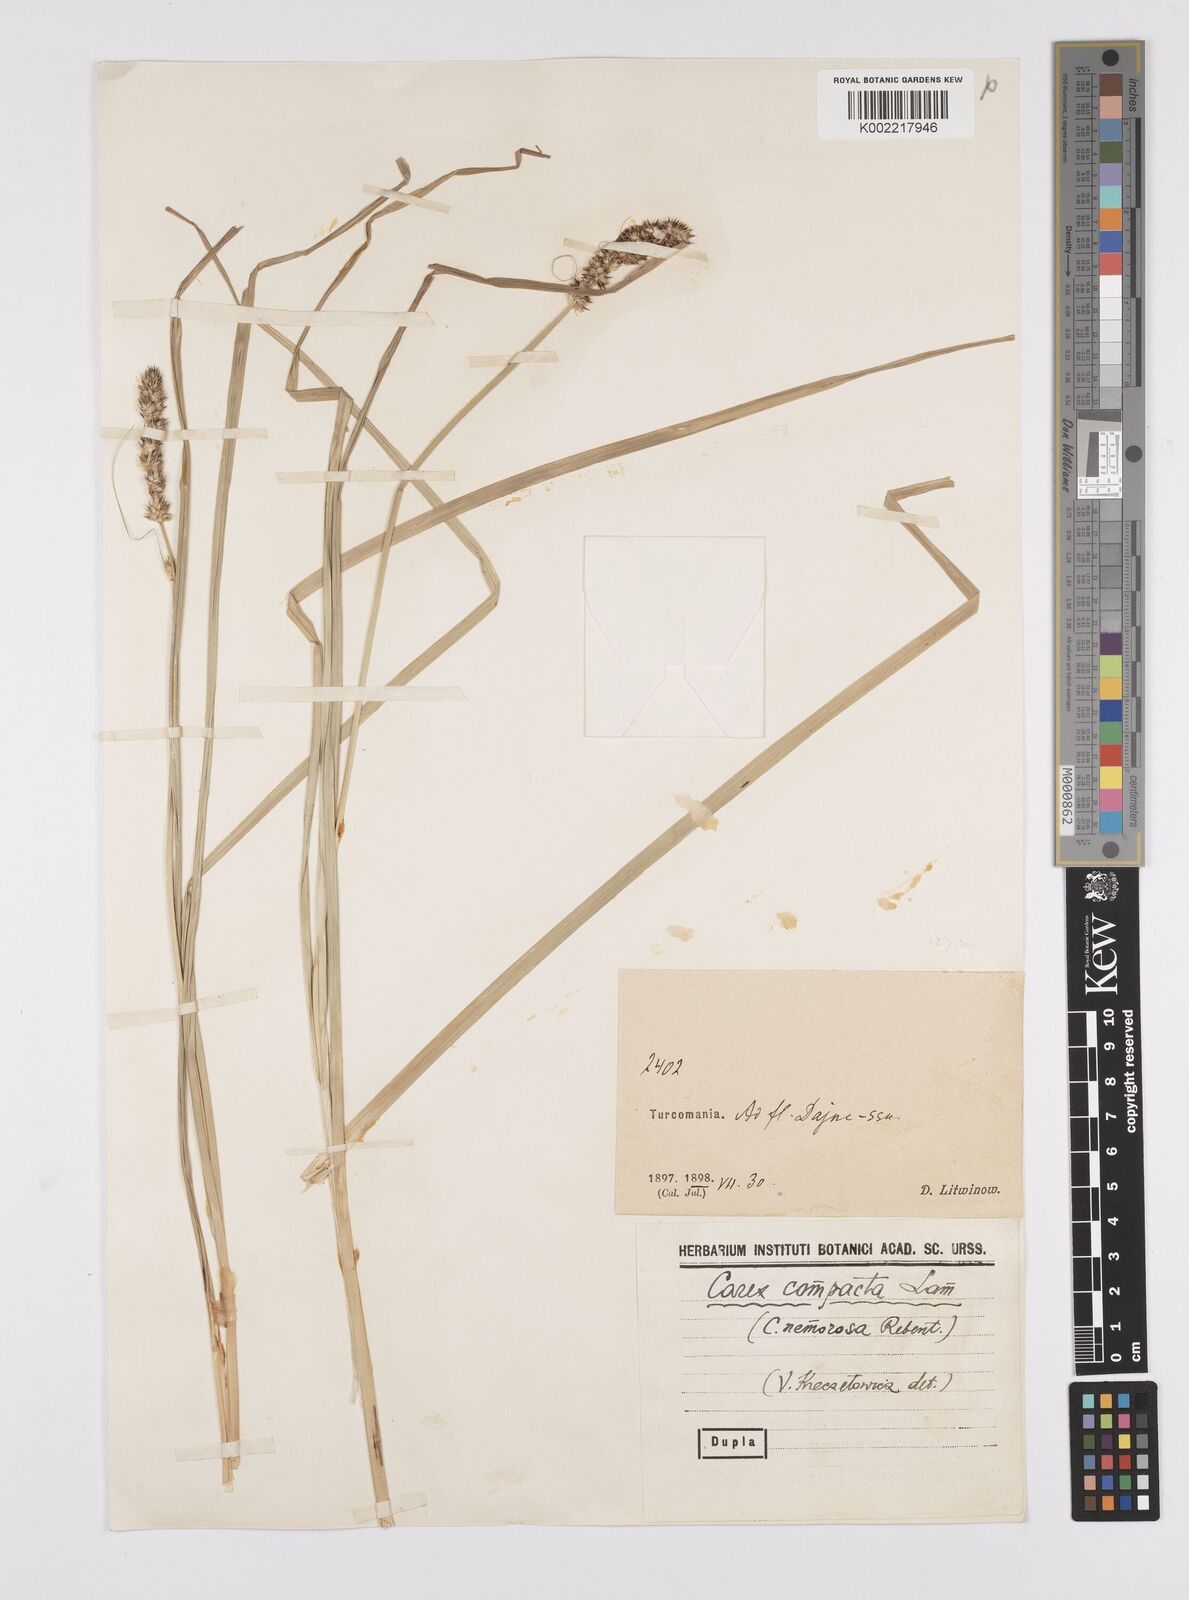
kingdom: Plantae
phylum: Tracheophyta
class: Liliopsida
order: Poales
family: Cyperaceae
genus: Carex
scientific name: Carex vulpina
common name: True fox-sedge
